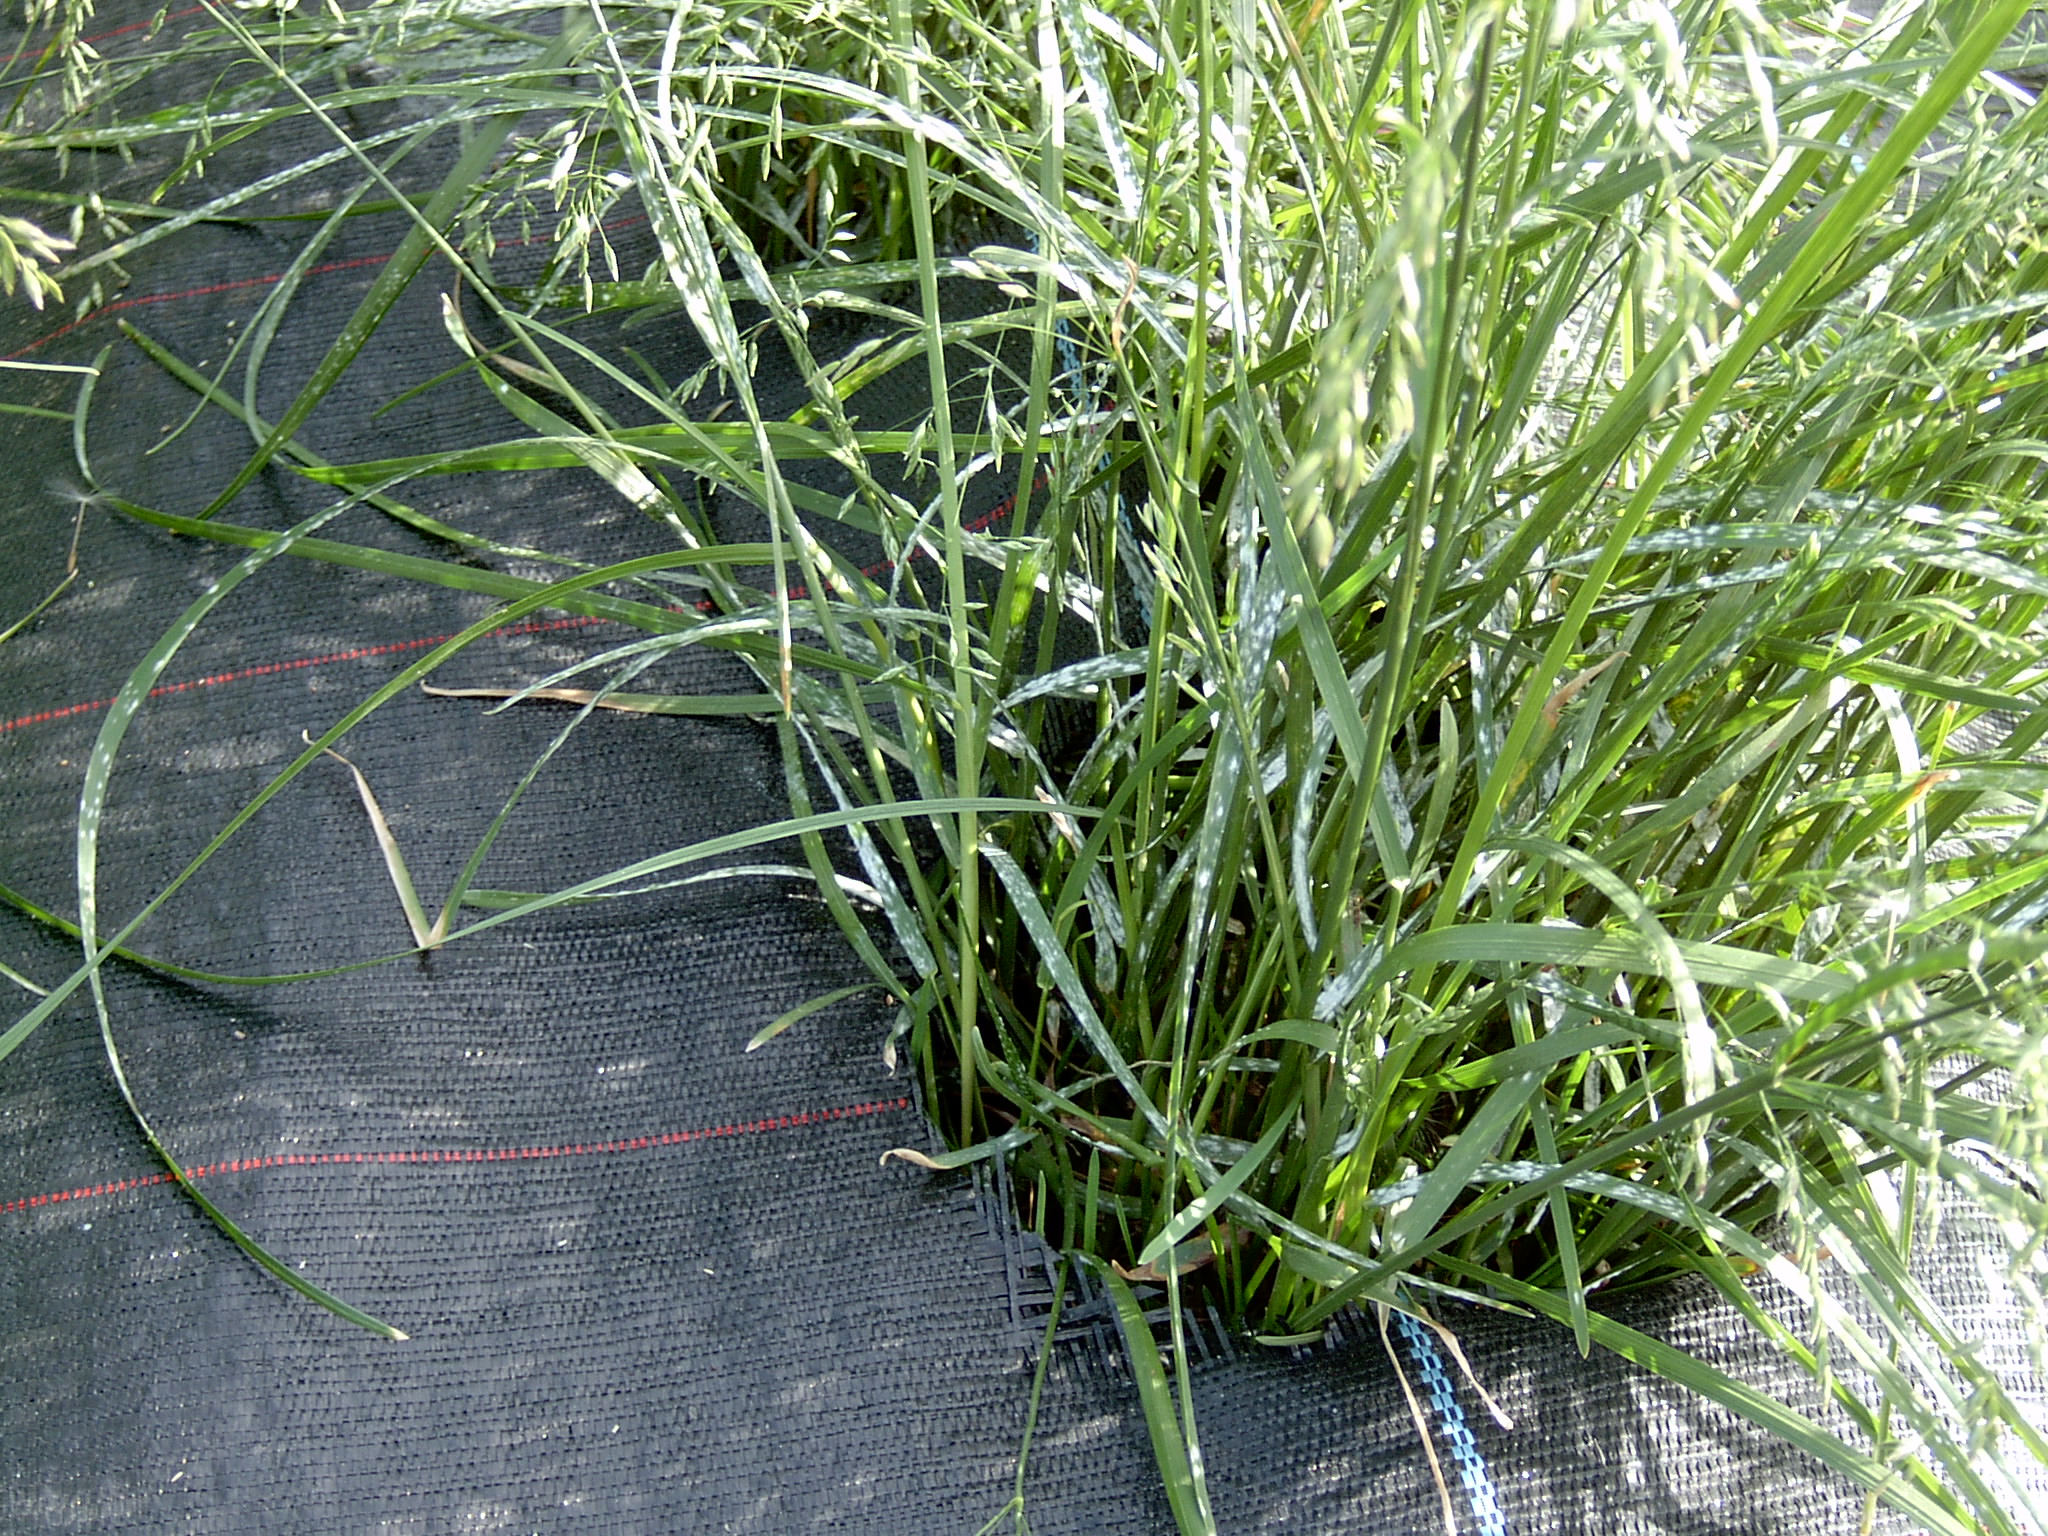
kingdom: Plantae
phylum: Tracheophyta
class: Liliopsida
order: Poales
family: Poaceae
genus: Poa
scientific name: Poa pratensis
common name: Kentucky bluegrass
